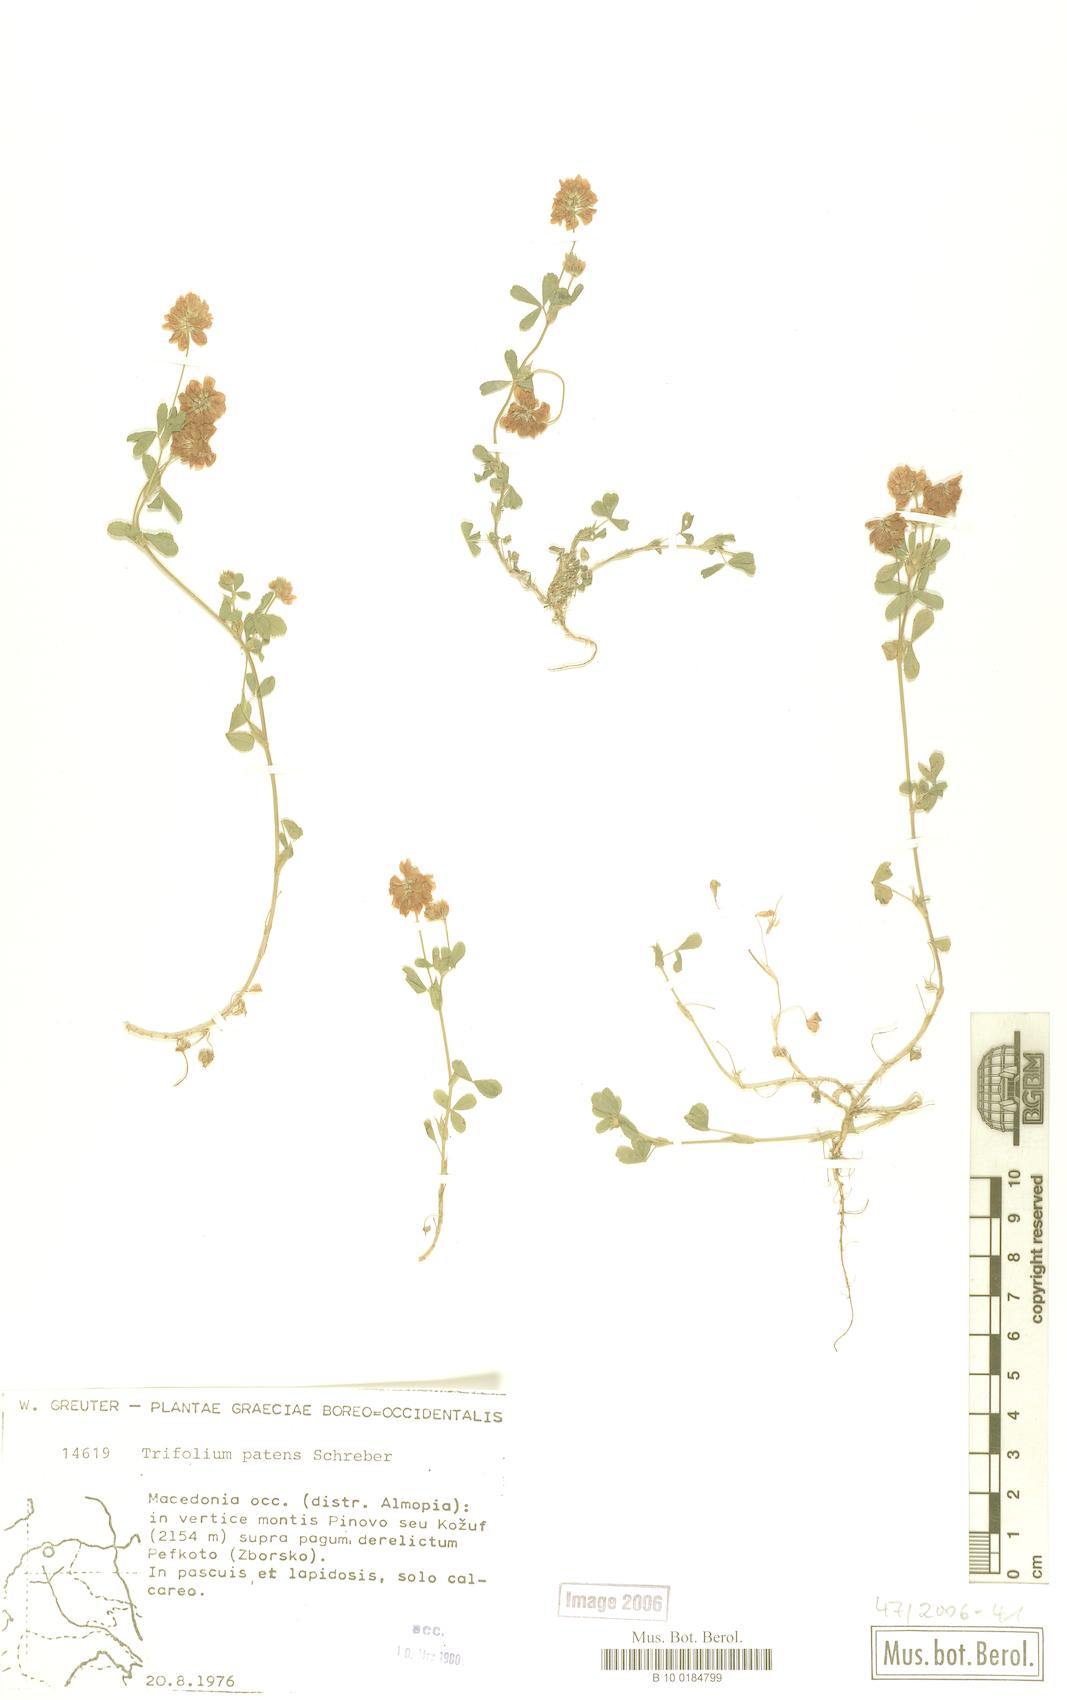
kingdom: Plantae
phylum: Tracheophyta
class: Magnoliopsida
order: Fabales
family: Fabaceae
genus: Trifolium
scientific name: Trifolium patens
